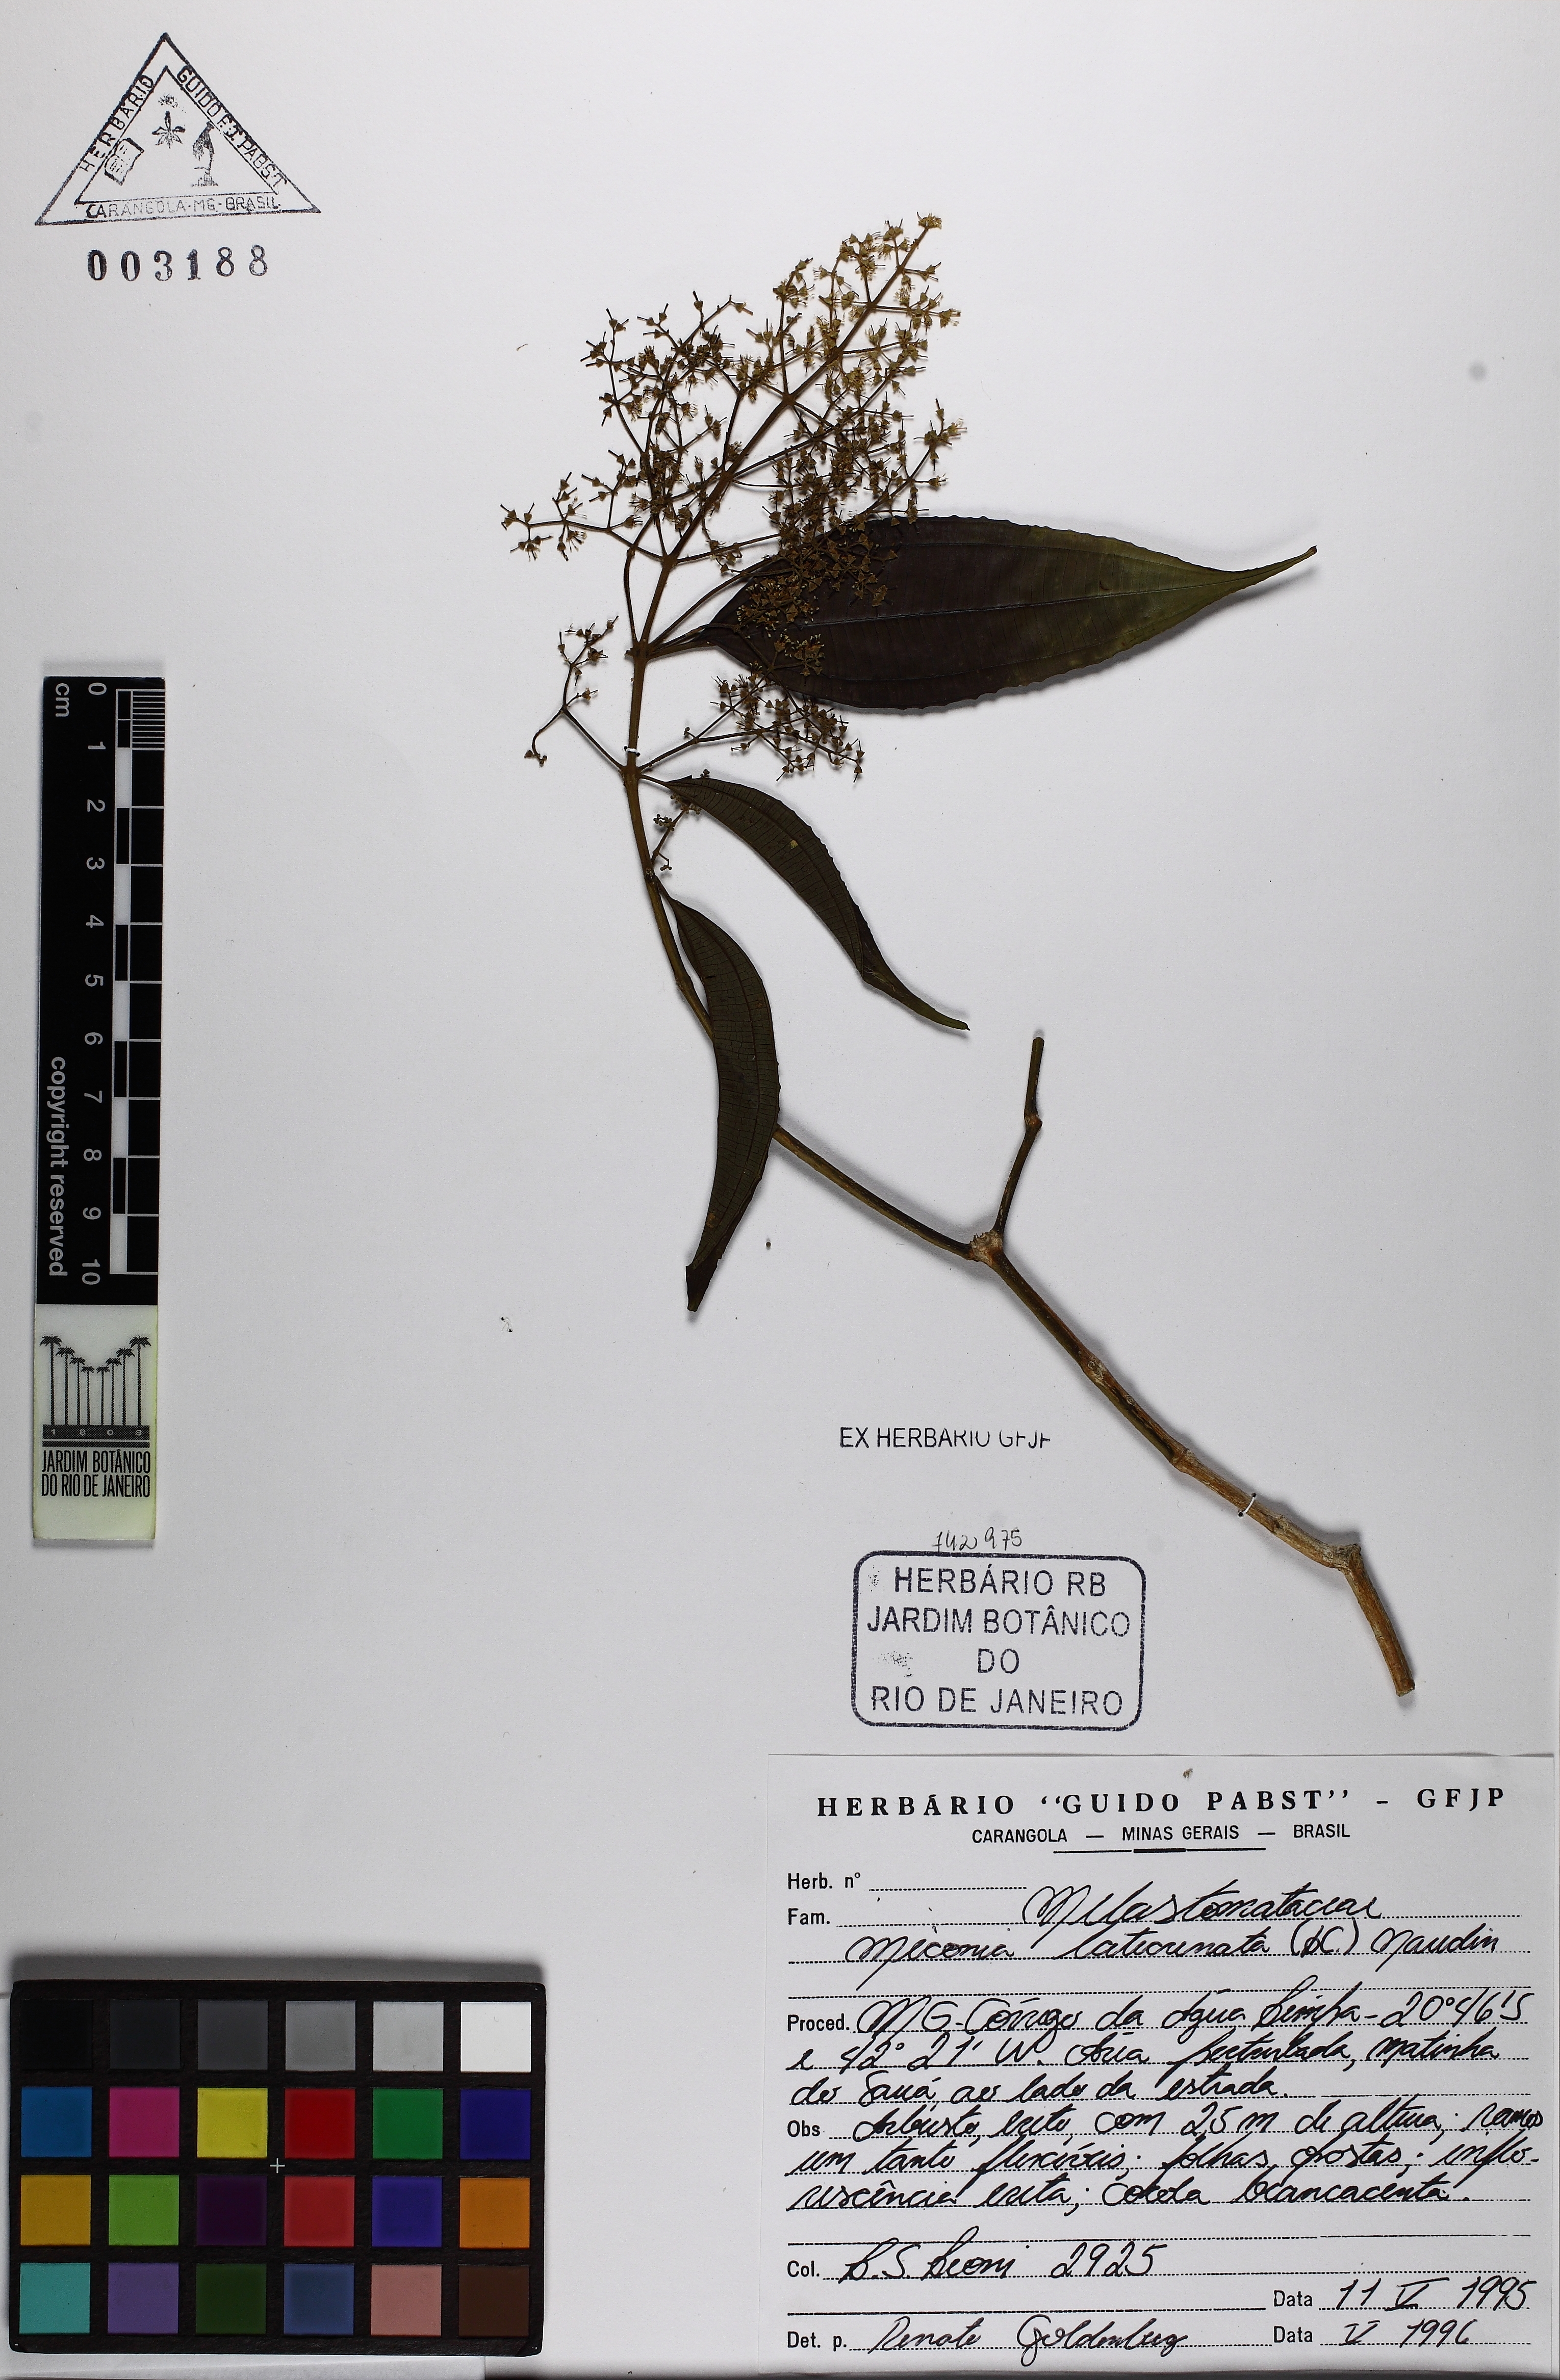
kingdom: Plantae
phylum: Tracheophyta
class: Magnoliopsida
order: Myrtales
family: Melastomataceae
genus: Miconia
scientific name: Miconia latecrenata
